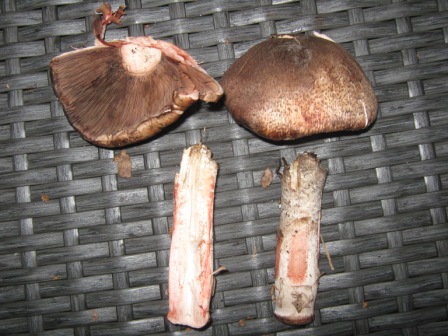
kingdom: Fungi
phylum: Basidiomycota
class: Agaricomycetes
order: Agaricales
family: Agaricaceae
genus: Agaricus
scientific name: Agaricus langei
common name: stor blod-champignon
